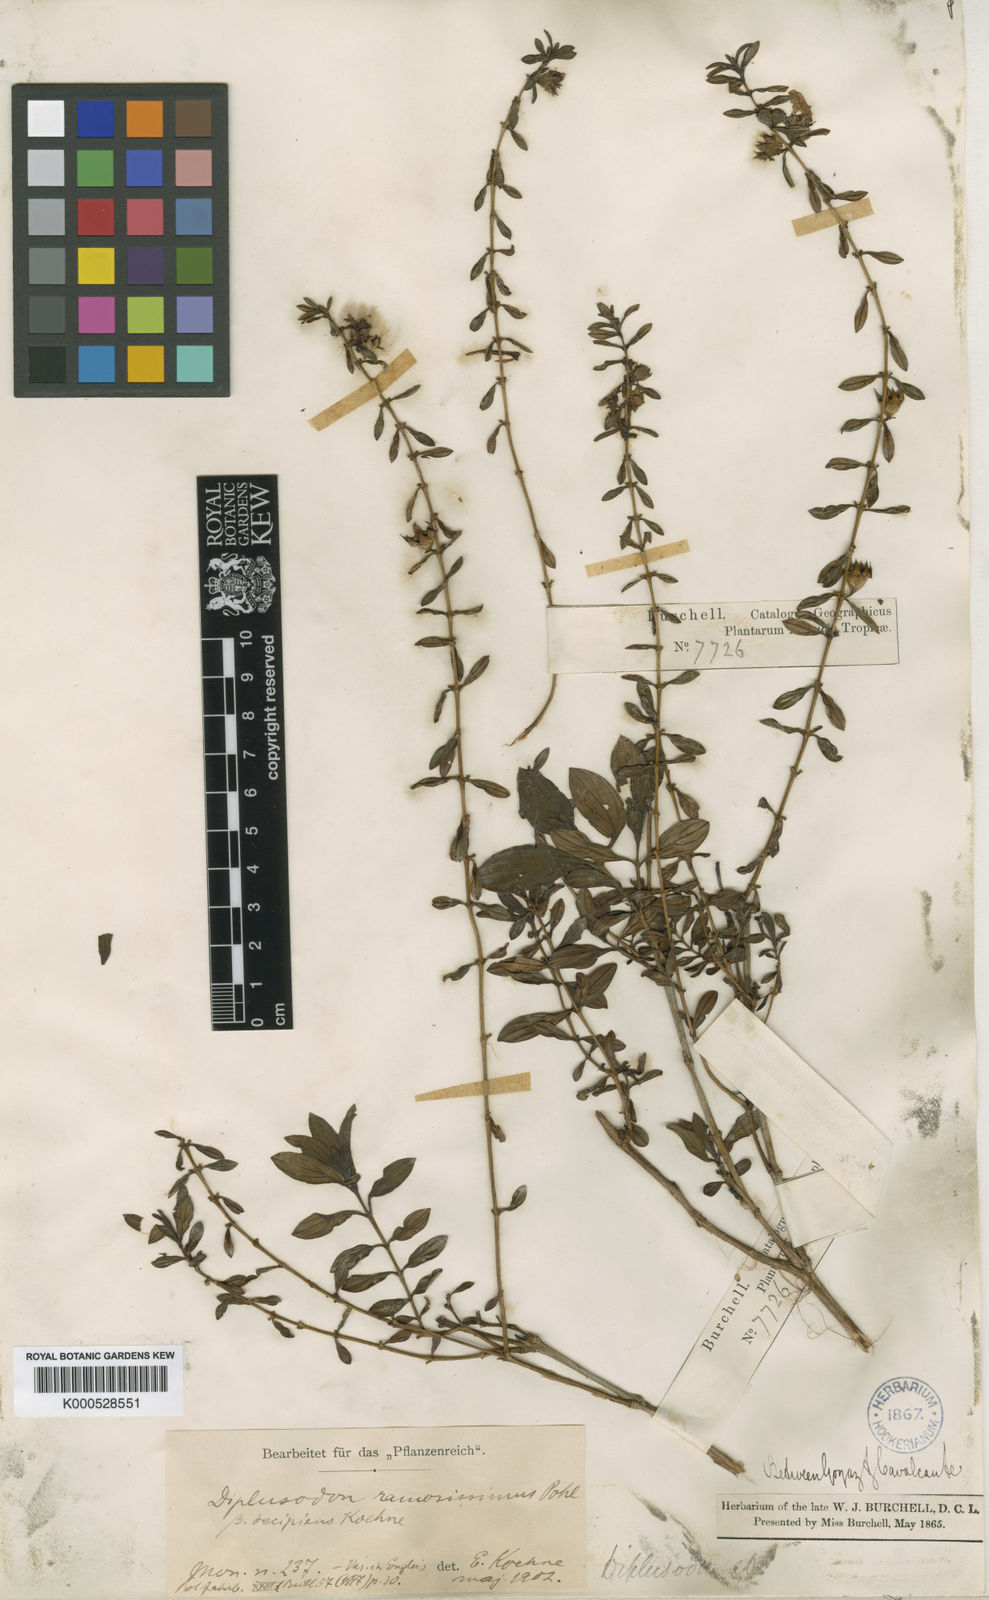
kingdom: Plantae
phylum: Tracheophyta
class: Magnoliopsida
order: Myrtales
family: Lythraceae
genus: Diplusodon
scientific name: Diplusodon ramosissimus
